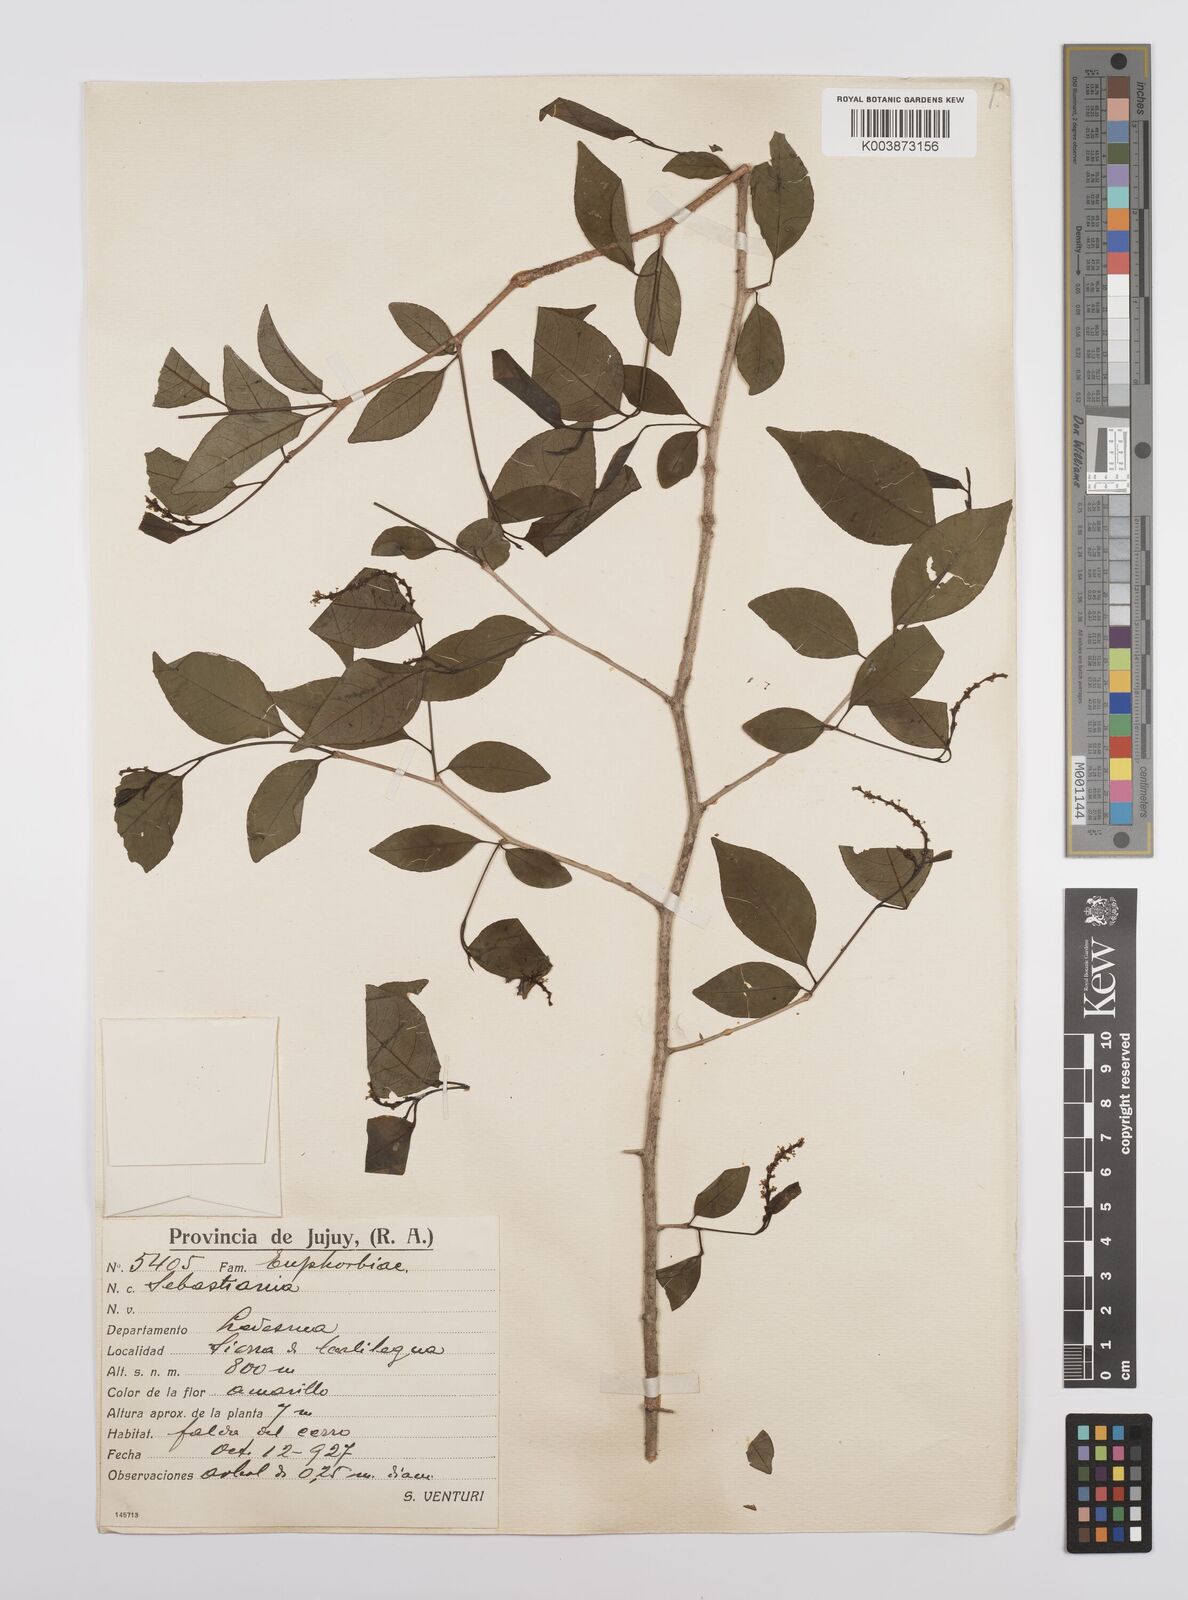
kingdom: Plantae
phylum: Tracheophyta
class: Magnoliopsida
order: Malpighiales
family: Euphorbiaceae
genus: Sebastiania
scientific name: Sebastiania
